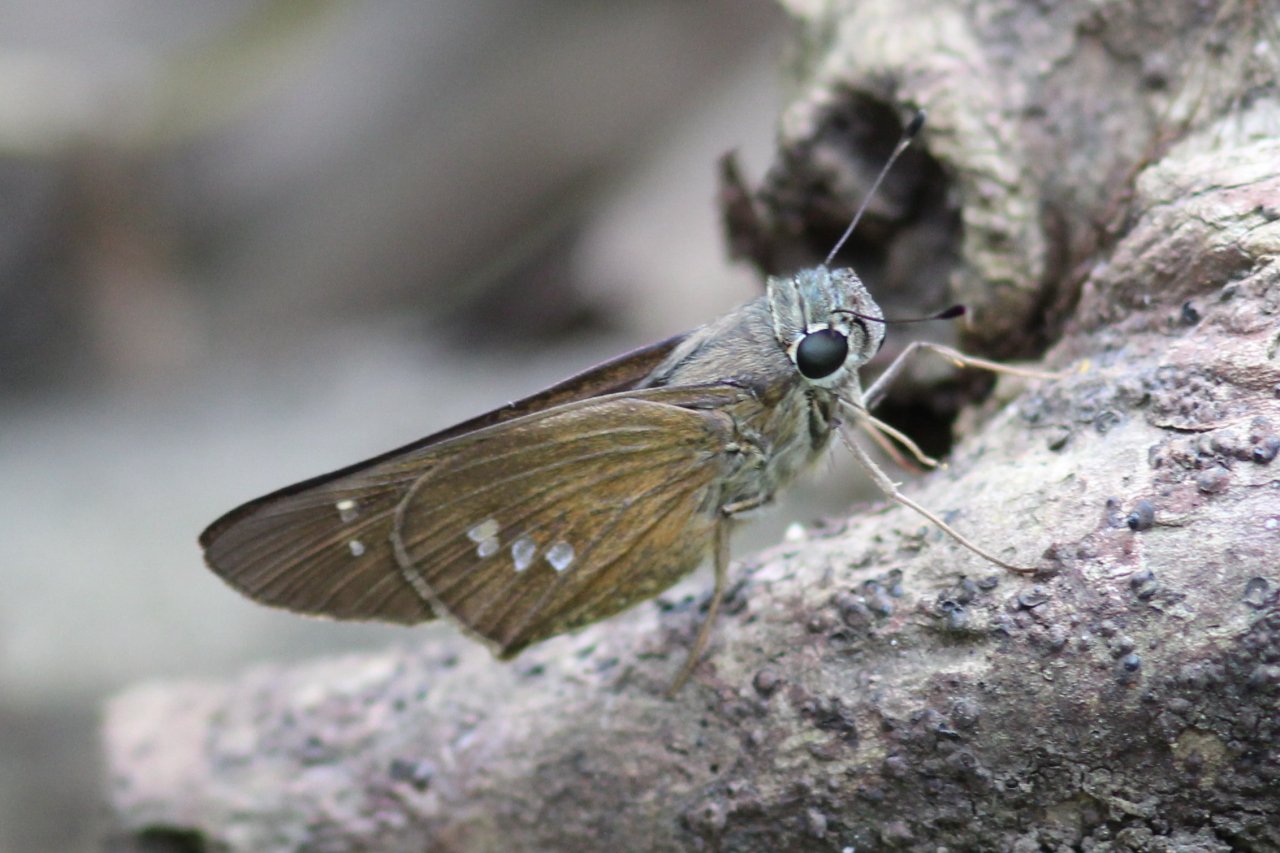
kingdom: Animalia
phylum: Arthropoda
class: Insecta
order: Lepidoptera
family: Hesperiidae
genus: Calpodes
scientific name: Calpodes ethlius
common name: Brazilian Skipper
